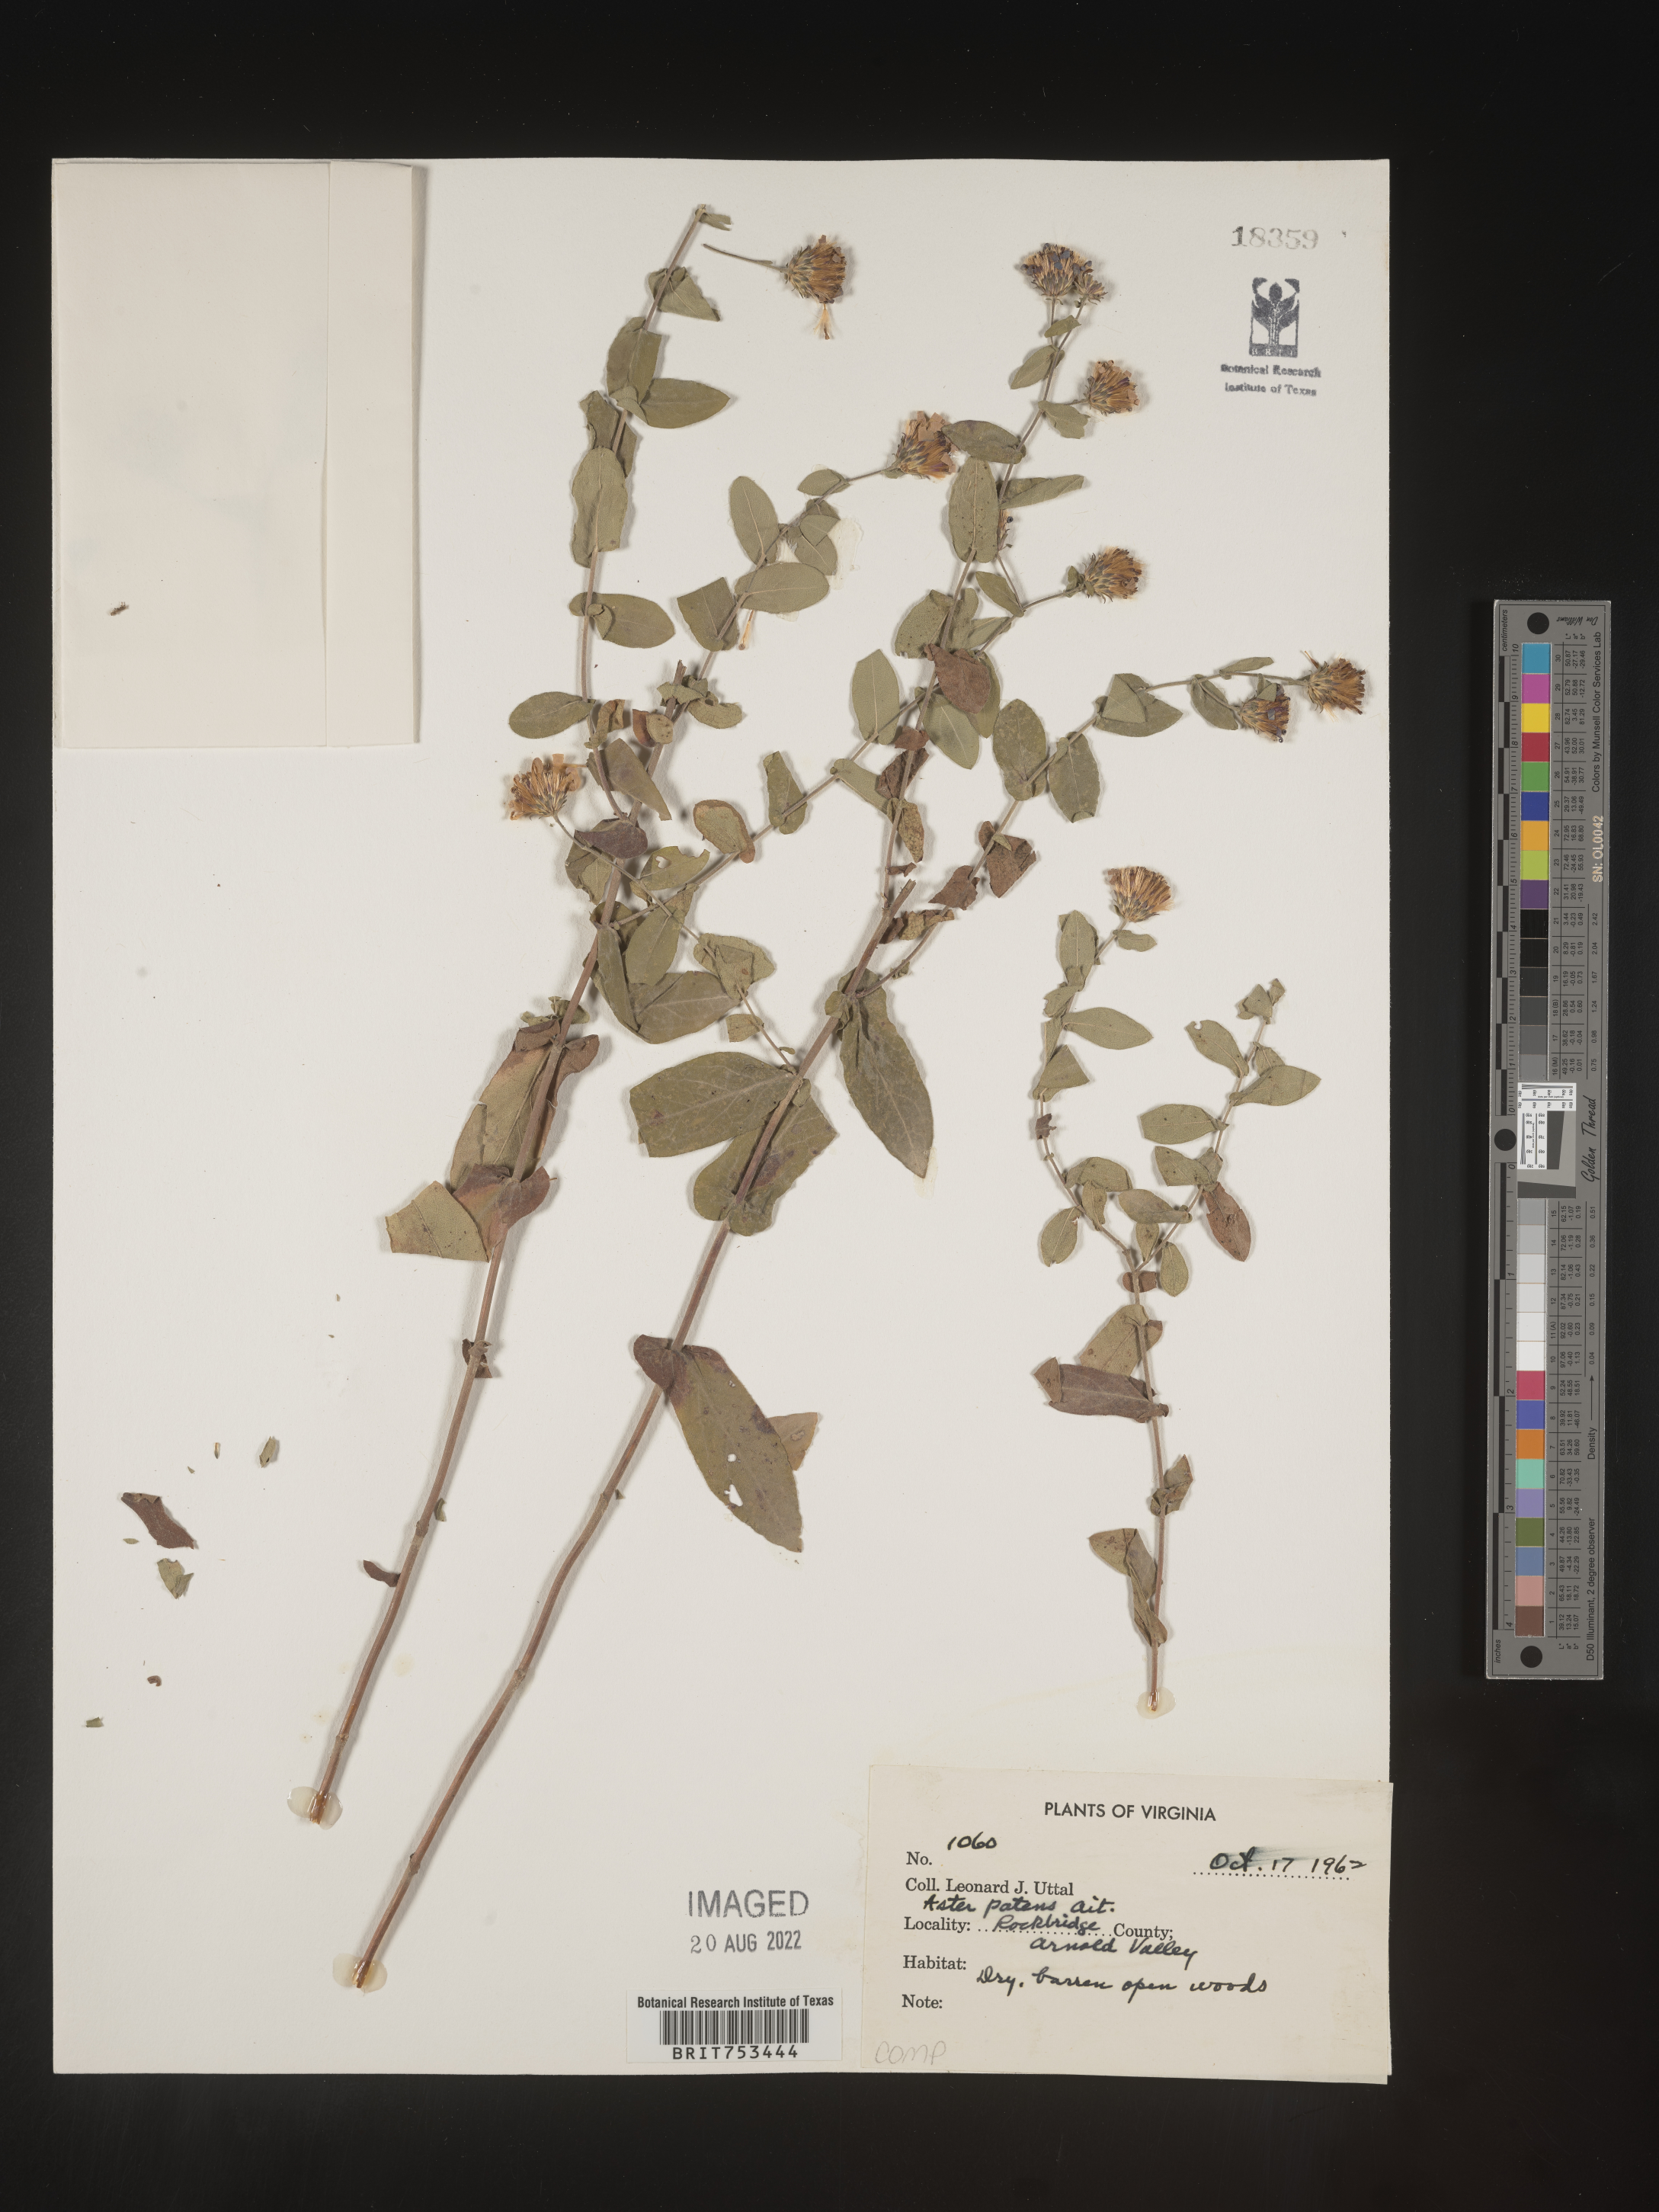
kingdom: Plantae
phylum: Tracheophyta
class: Magnoliopsida
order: Asterales
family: Asteraceae
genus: Symphyotrichum
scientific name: Symphyotrichum patens
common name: Late purple aster
